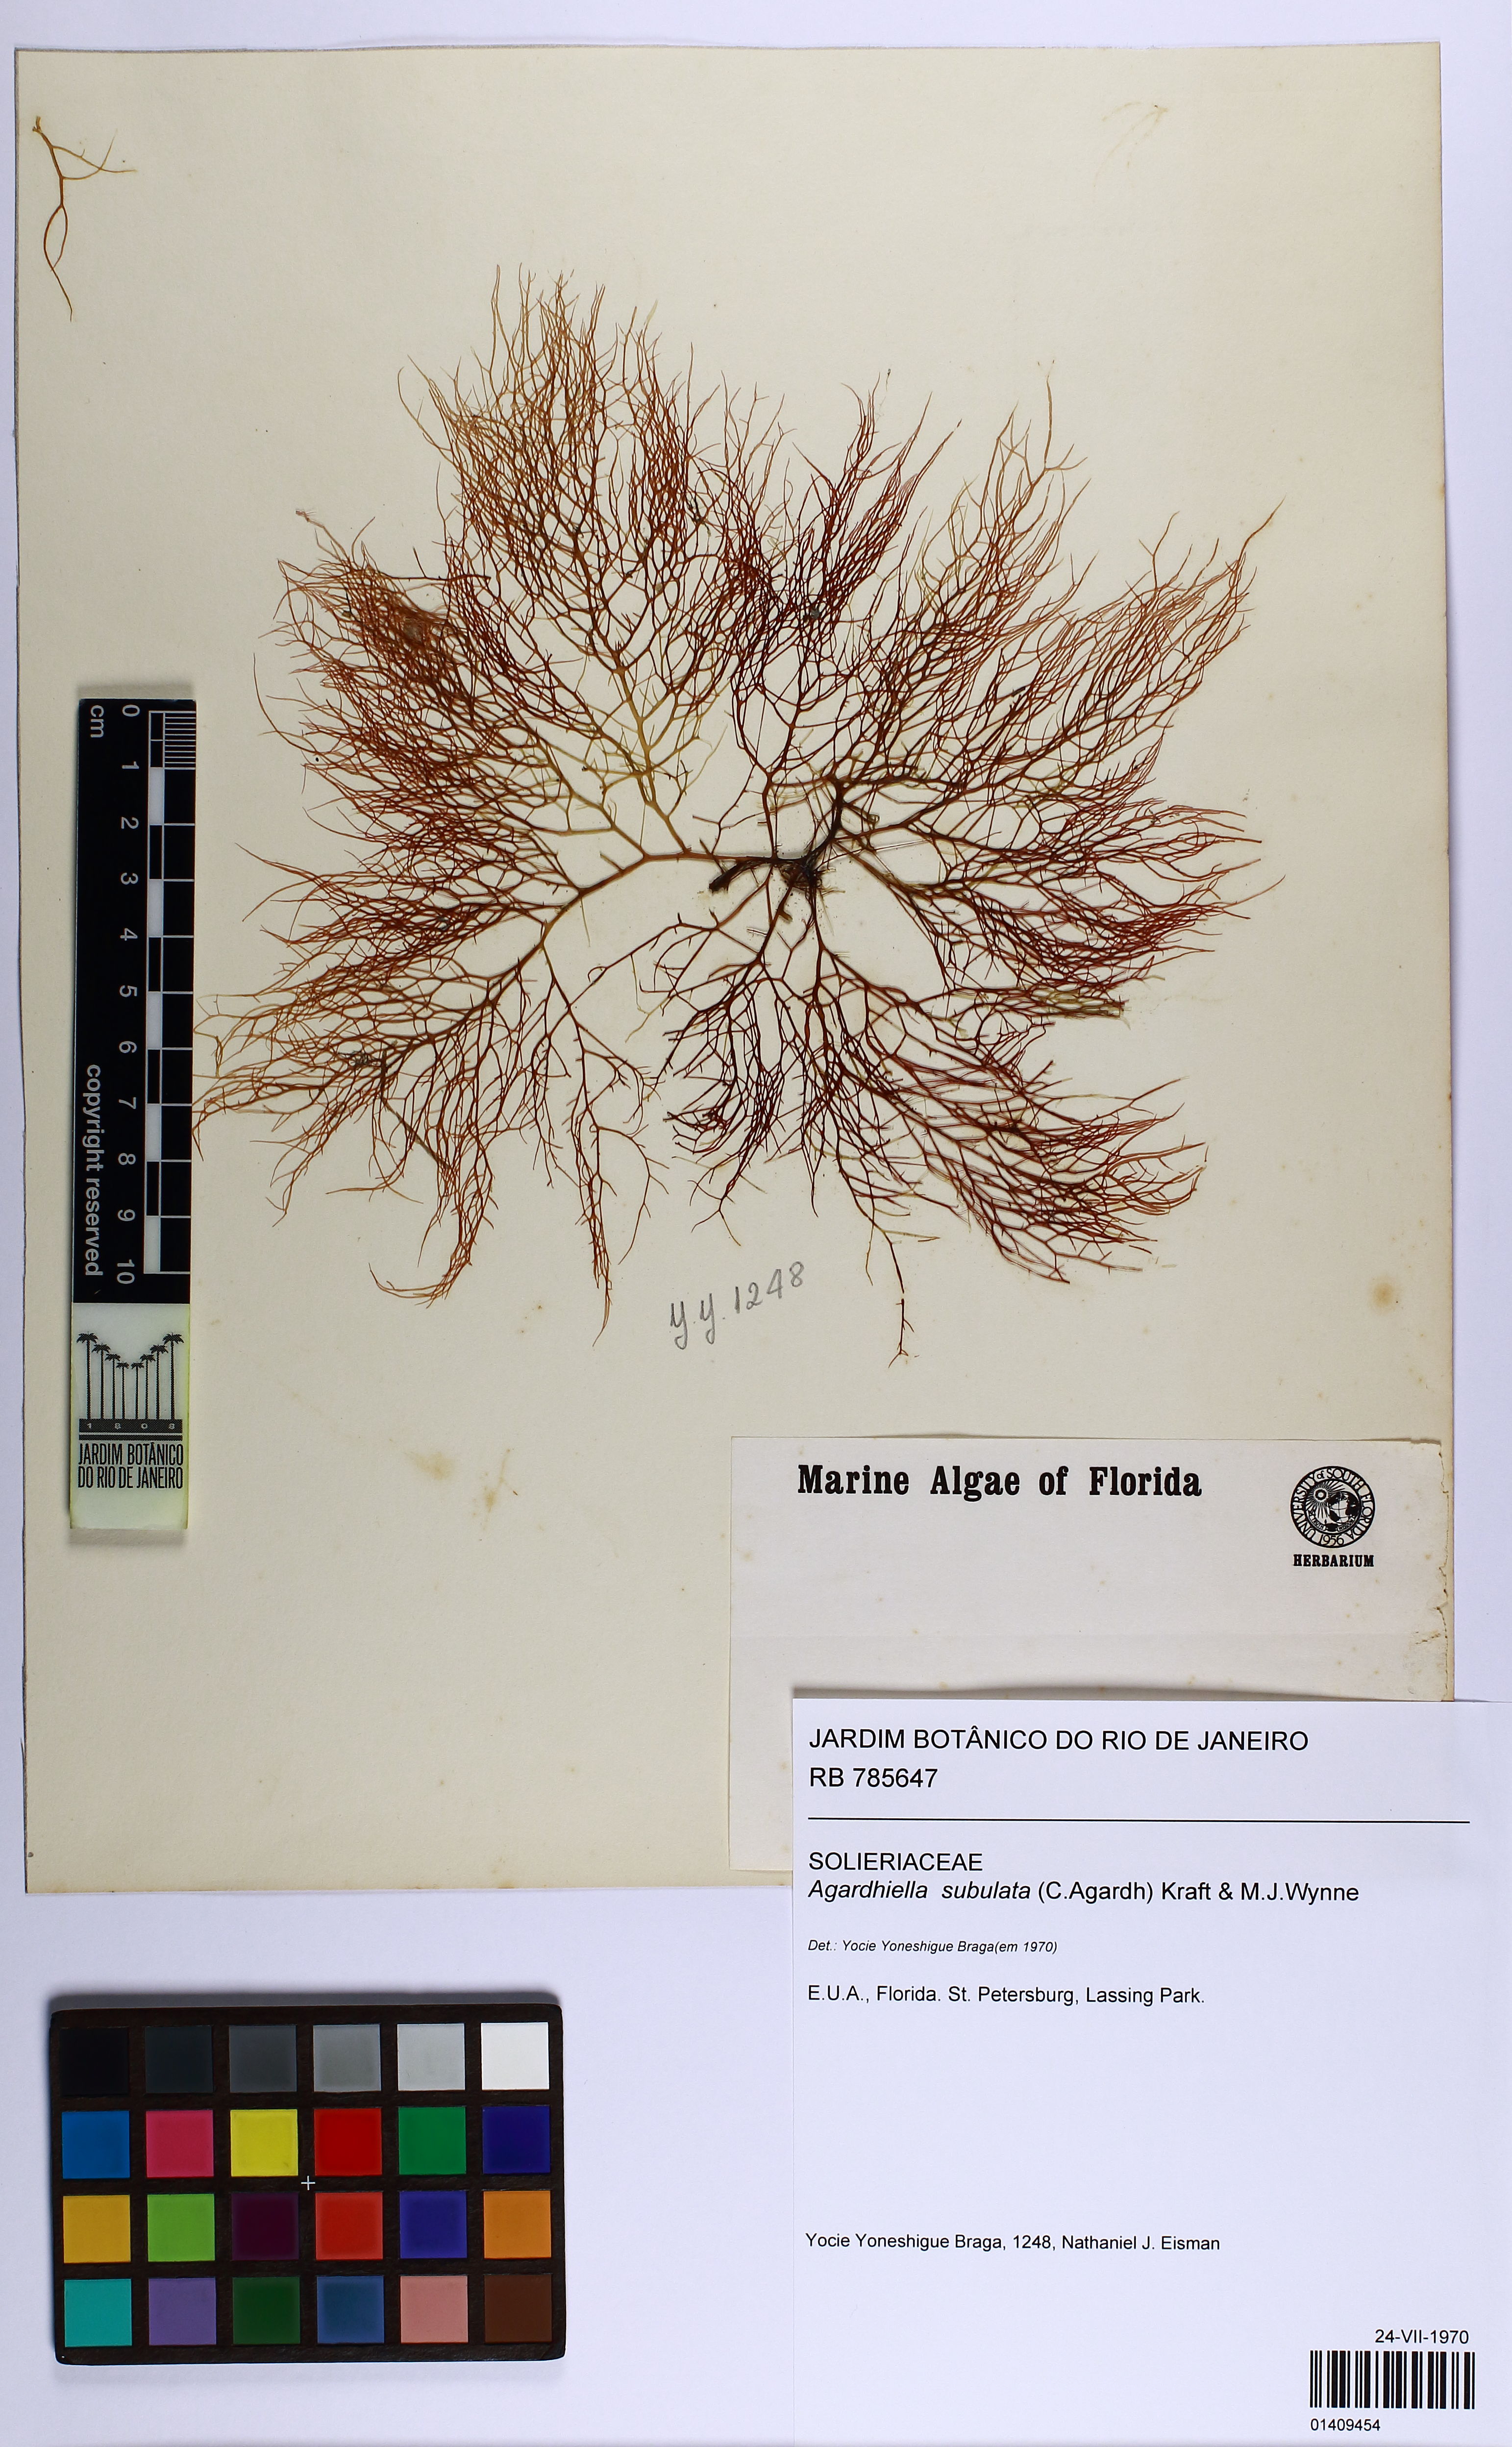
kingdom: Plantae
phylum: Rhodophyta
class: Florideophyceae
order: Gigartinales
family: Solieriaceae
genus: Agardhiella
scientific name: Agardhiella subulata
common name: Agardh's red weed
